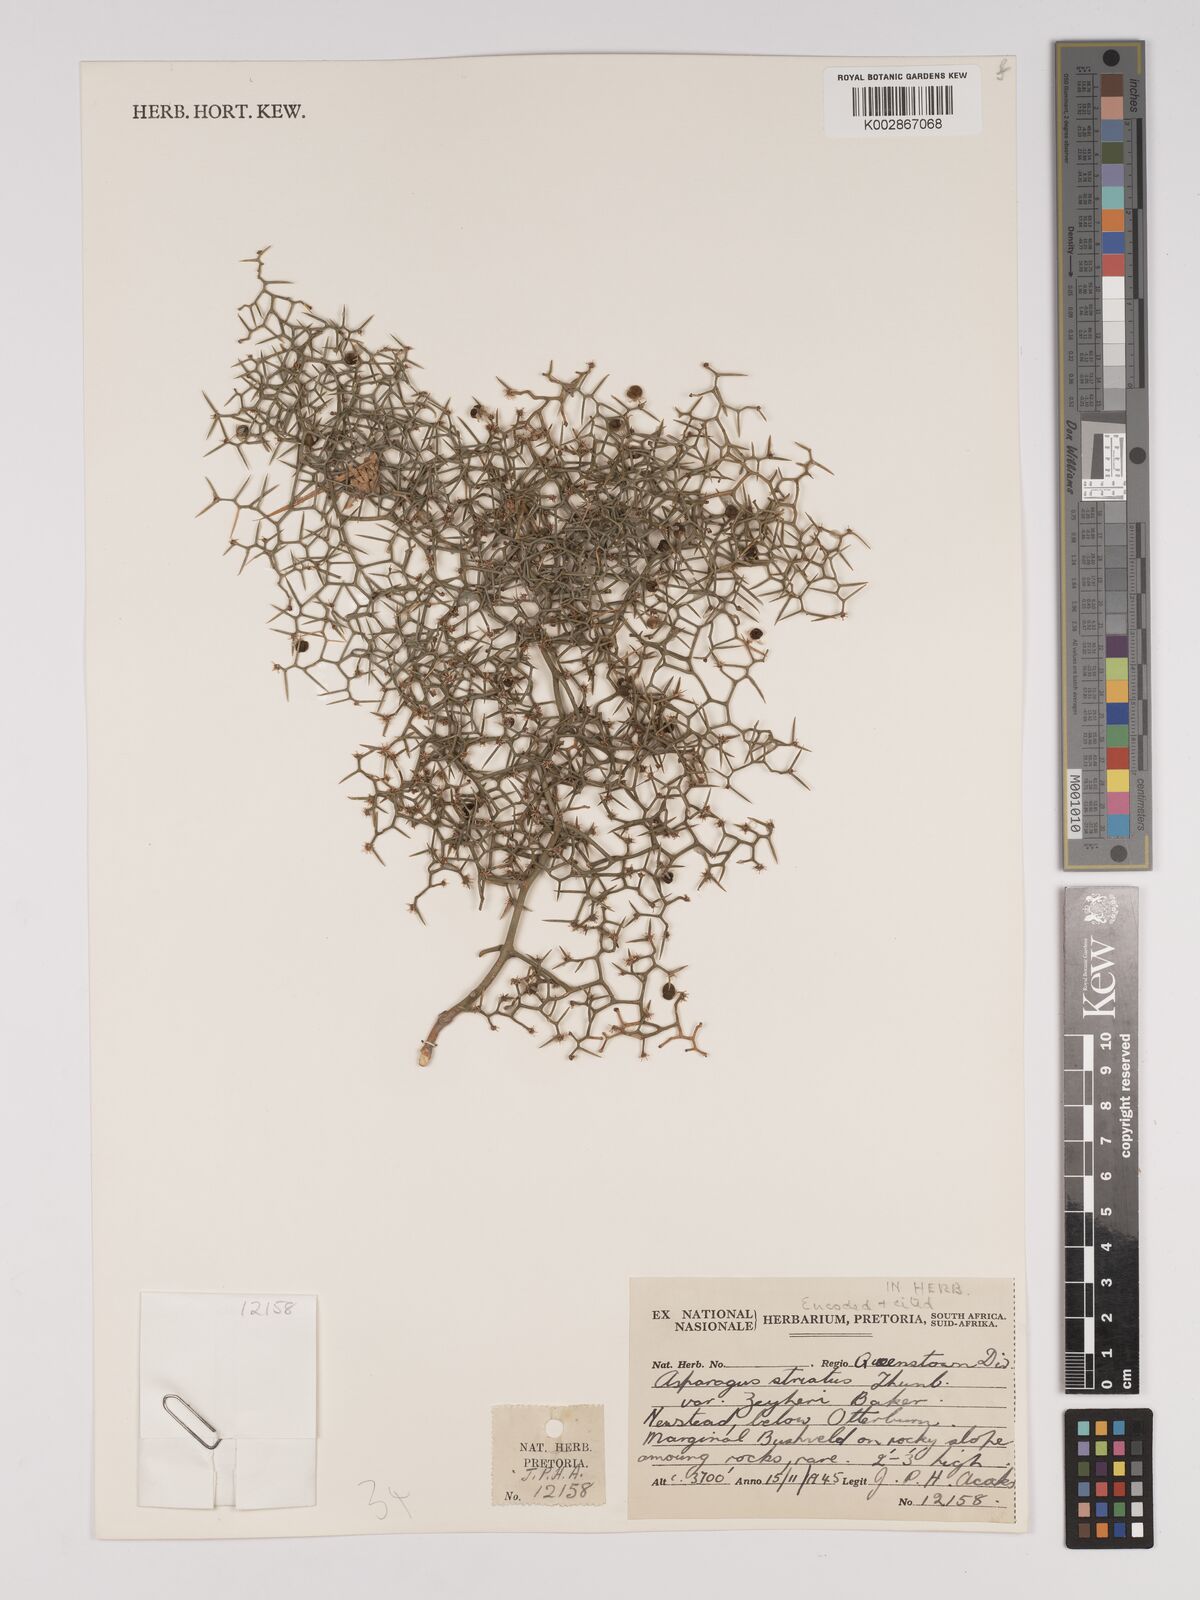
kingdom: Plantae
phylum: Tracheophyta
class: Liliopsida
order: Asparagales
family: Asparagaceae
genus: Asparagus
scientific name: Asparagus striatus
